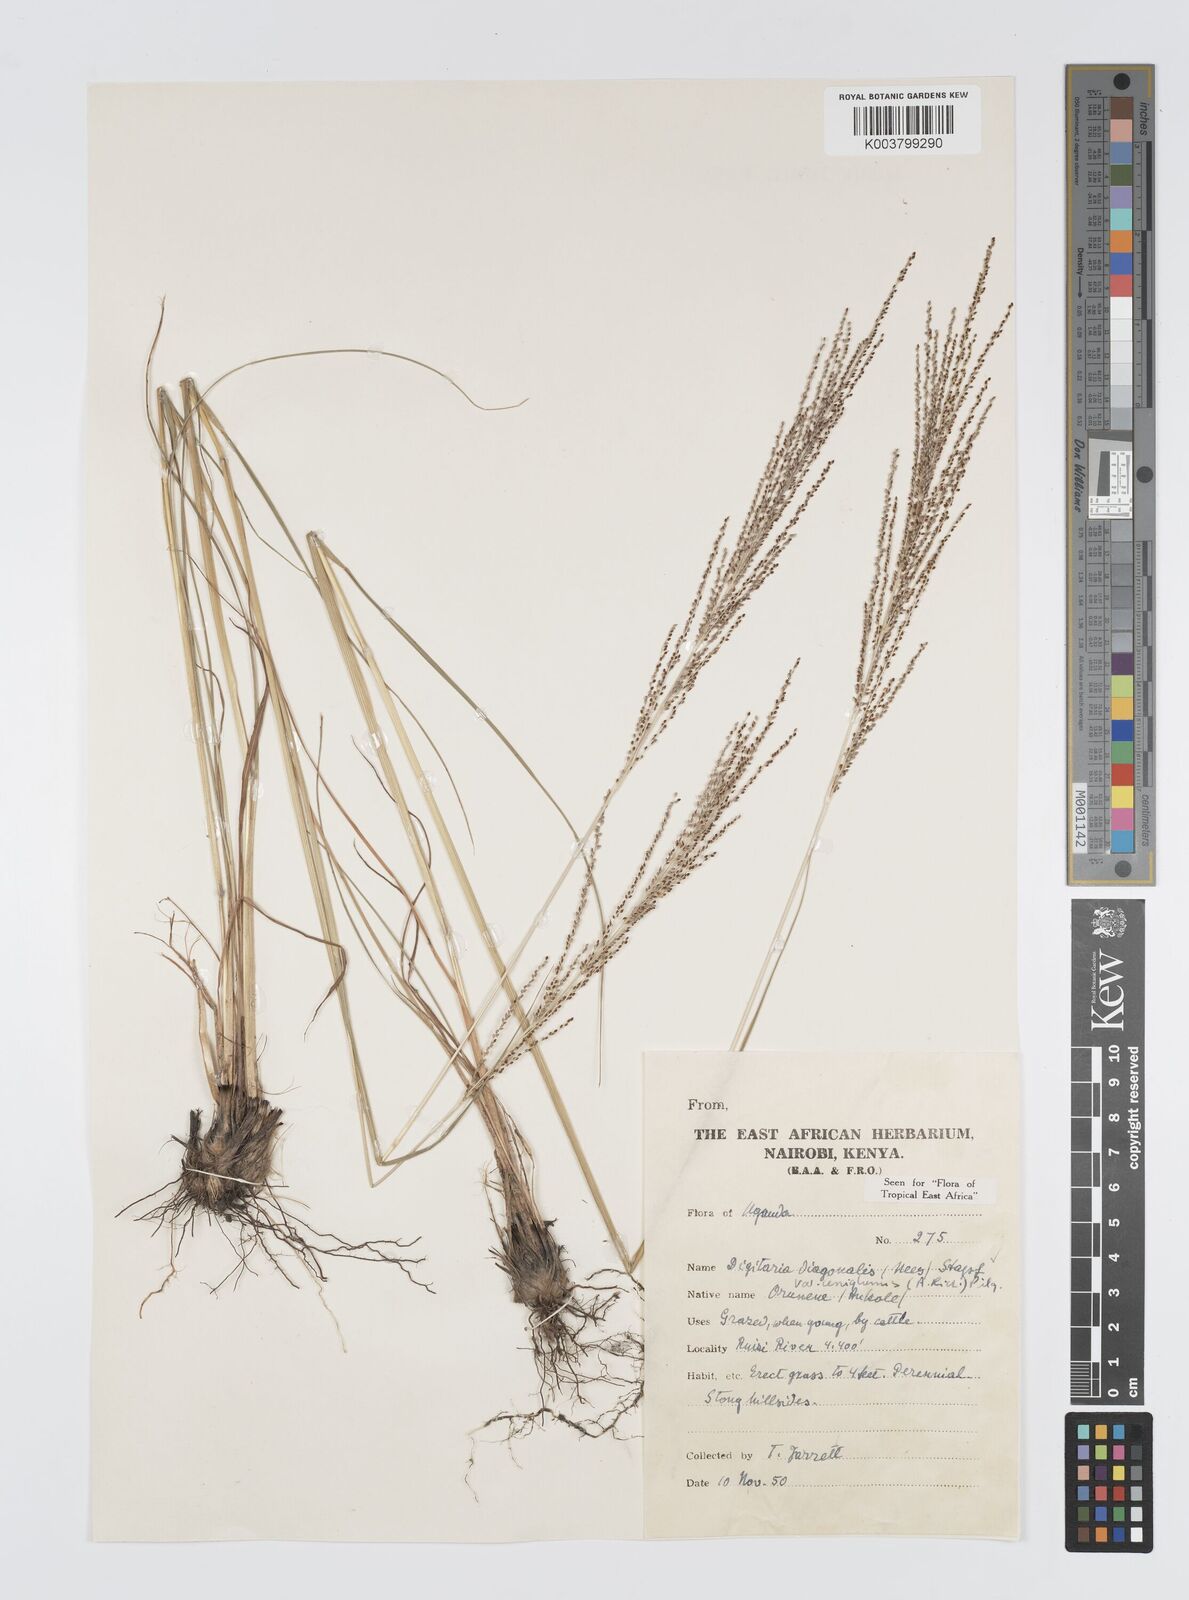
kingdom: Plantae
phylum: Tracheophyta
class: Liliopsida
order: Poales
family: Poaceae
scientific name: Poaceae
